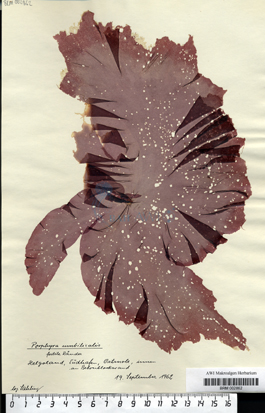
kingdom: Plantae
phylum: Rhodophyta
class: Bangiophyceae
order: Bangiales
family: Bangiaceae
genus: Porphyra
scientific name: Porphyra umbilicalis
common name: Purple laver
